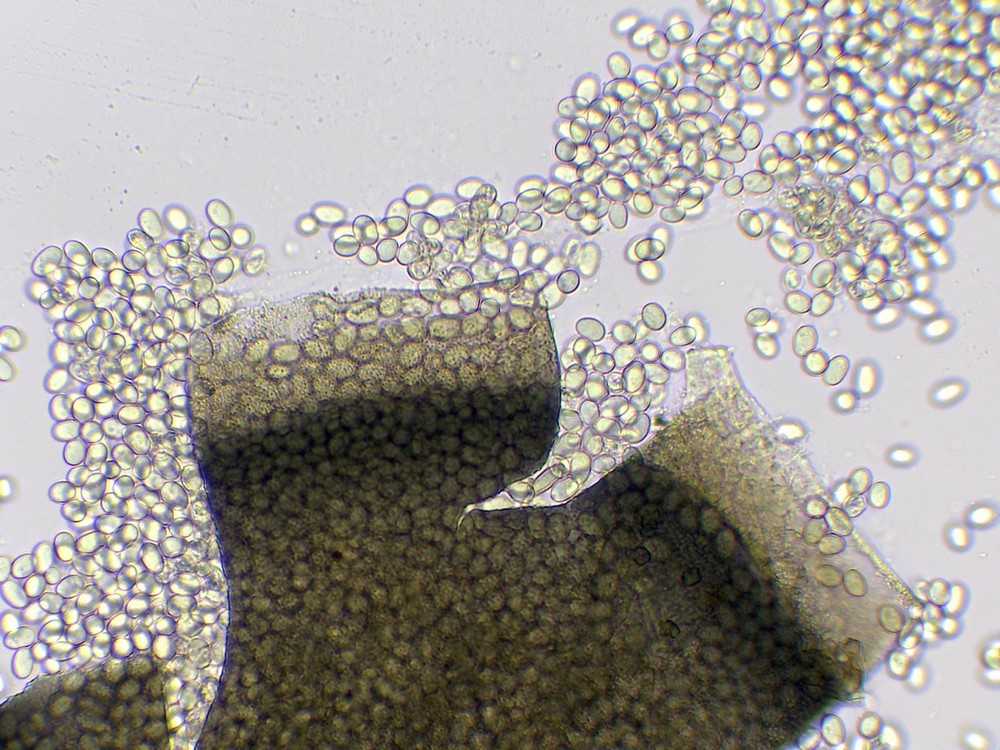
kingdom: Fungi
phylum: Mucoromycota
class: Mucoromycetes
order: Mucorales
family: Mucoraceae
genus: Pilaira
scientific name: Pilaira anomala
